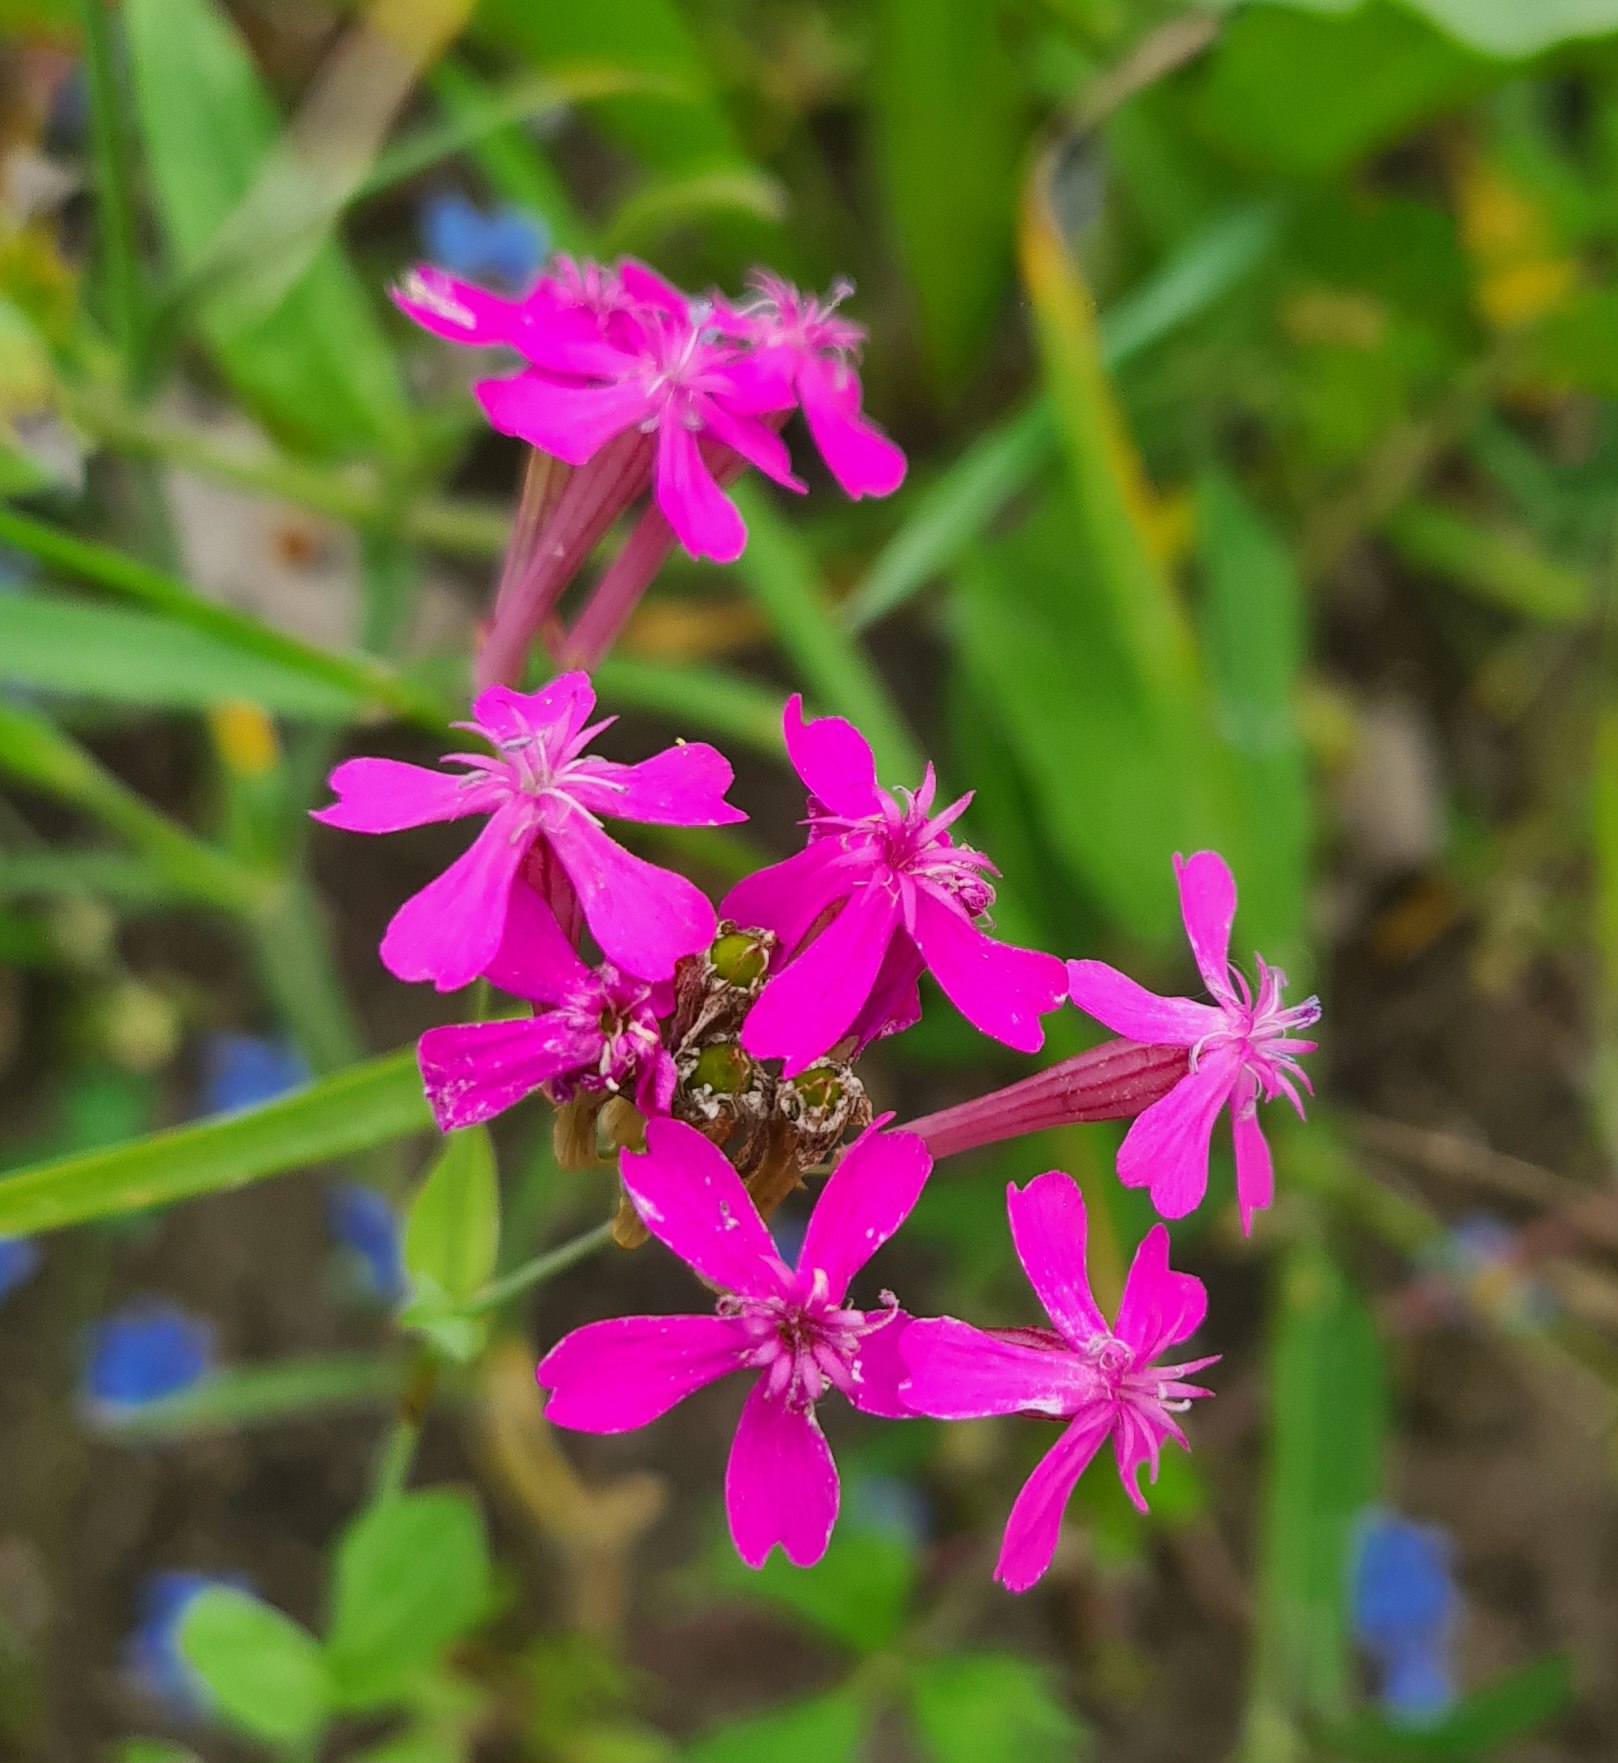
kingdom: Plantae
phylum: Tracheophyta
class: Magnoliopsida
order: Caryophyllales
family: Caryophyllaceae
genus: Atocion
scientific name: Atocion armeria
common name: Knippe-limurt
